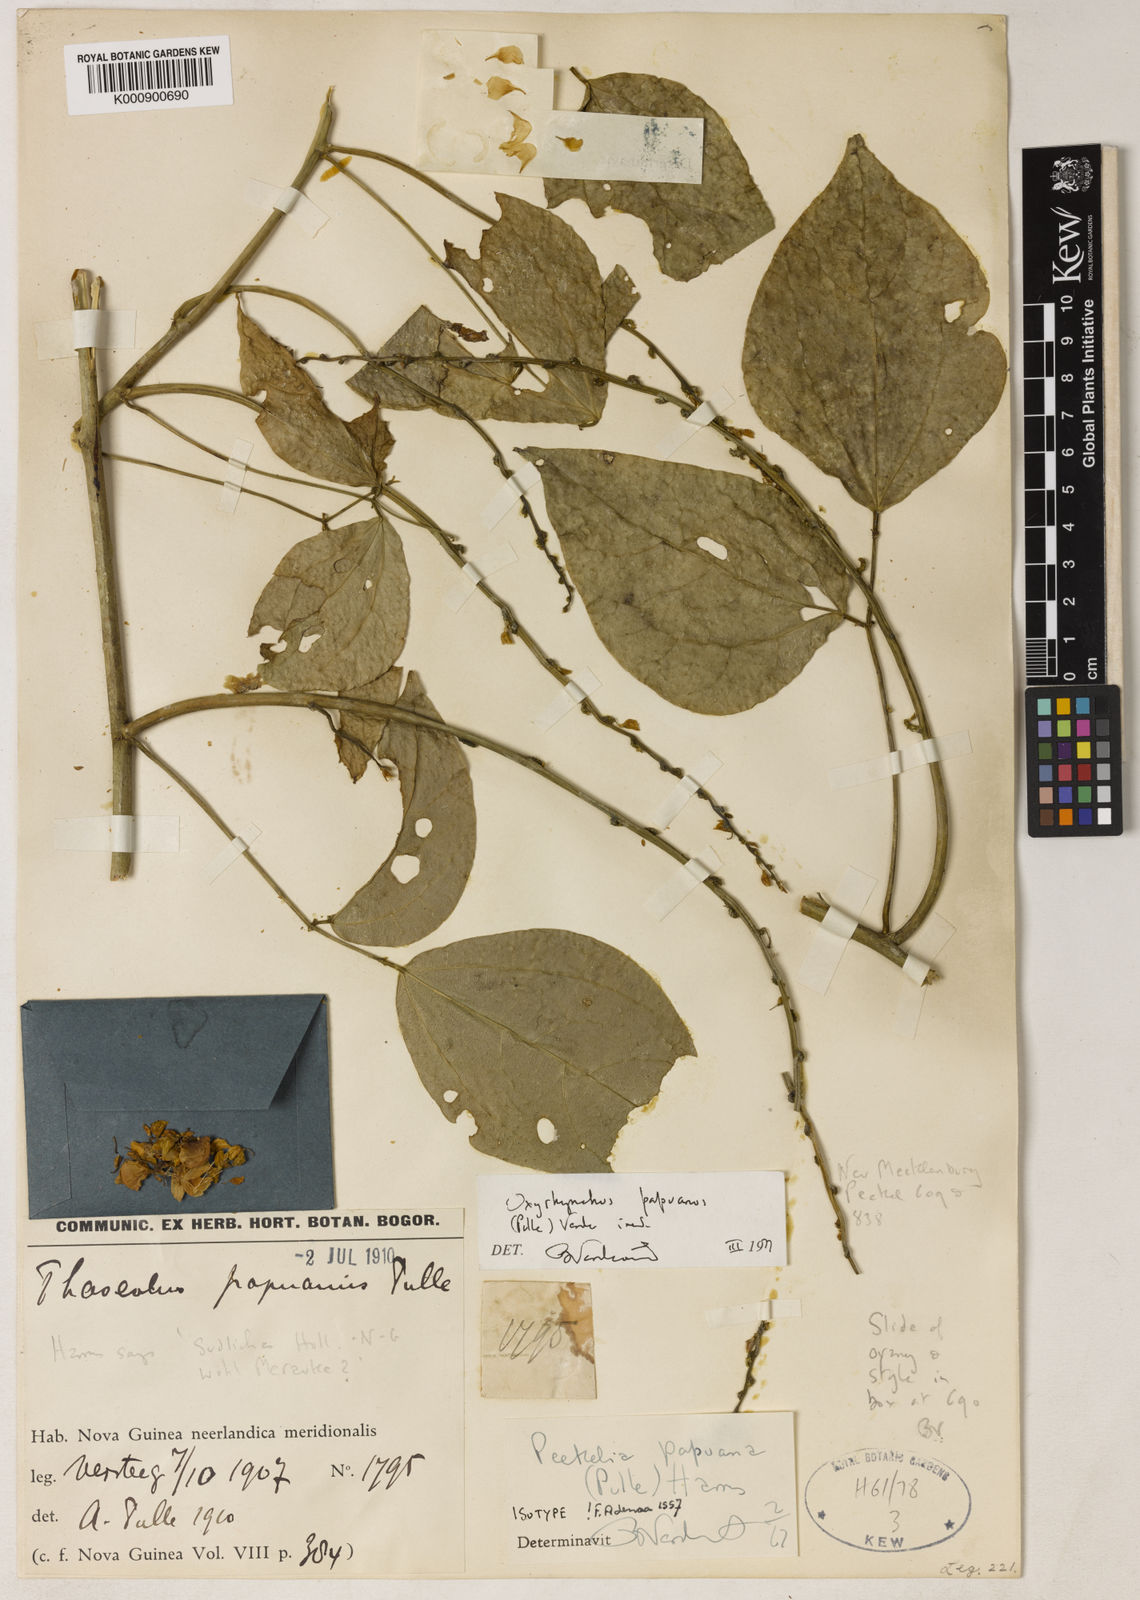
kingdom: Plantae
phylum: Tracheophyta
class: Magnoliopsida
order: Fabales
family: Fabaceae
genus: Oxyrhynchus
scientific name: Oxyrhynchus papuanus
